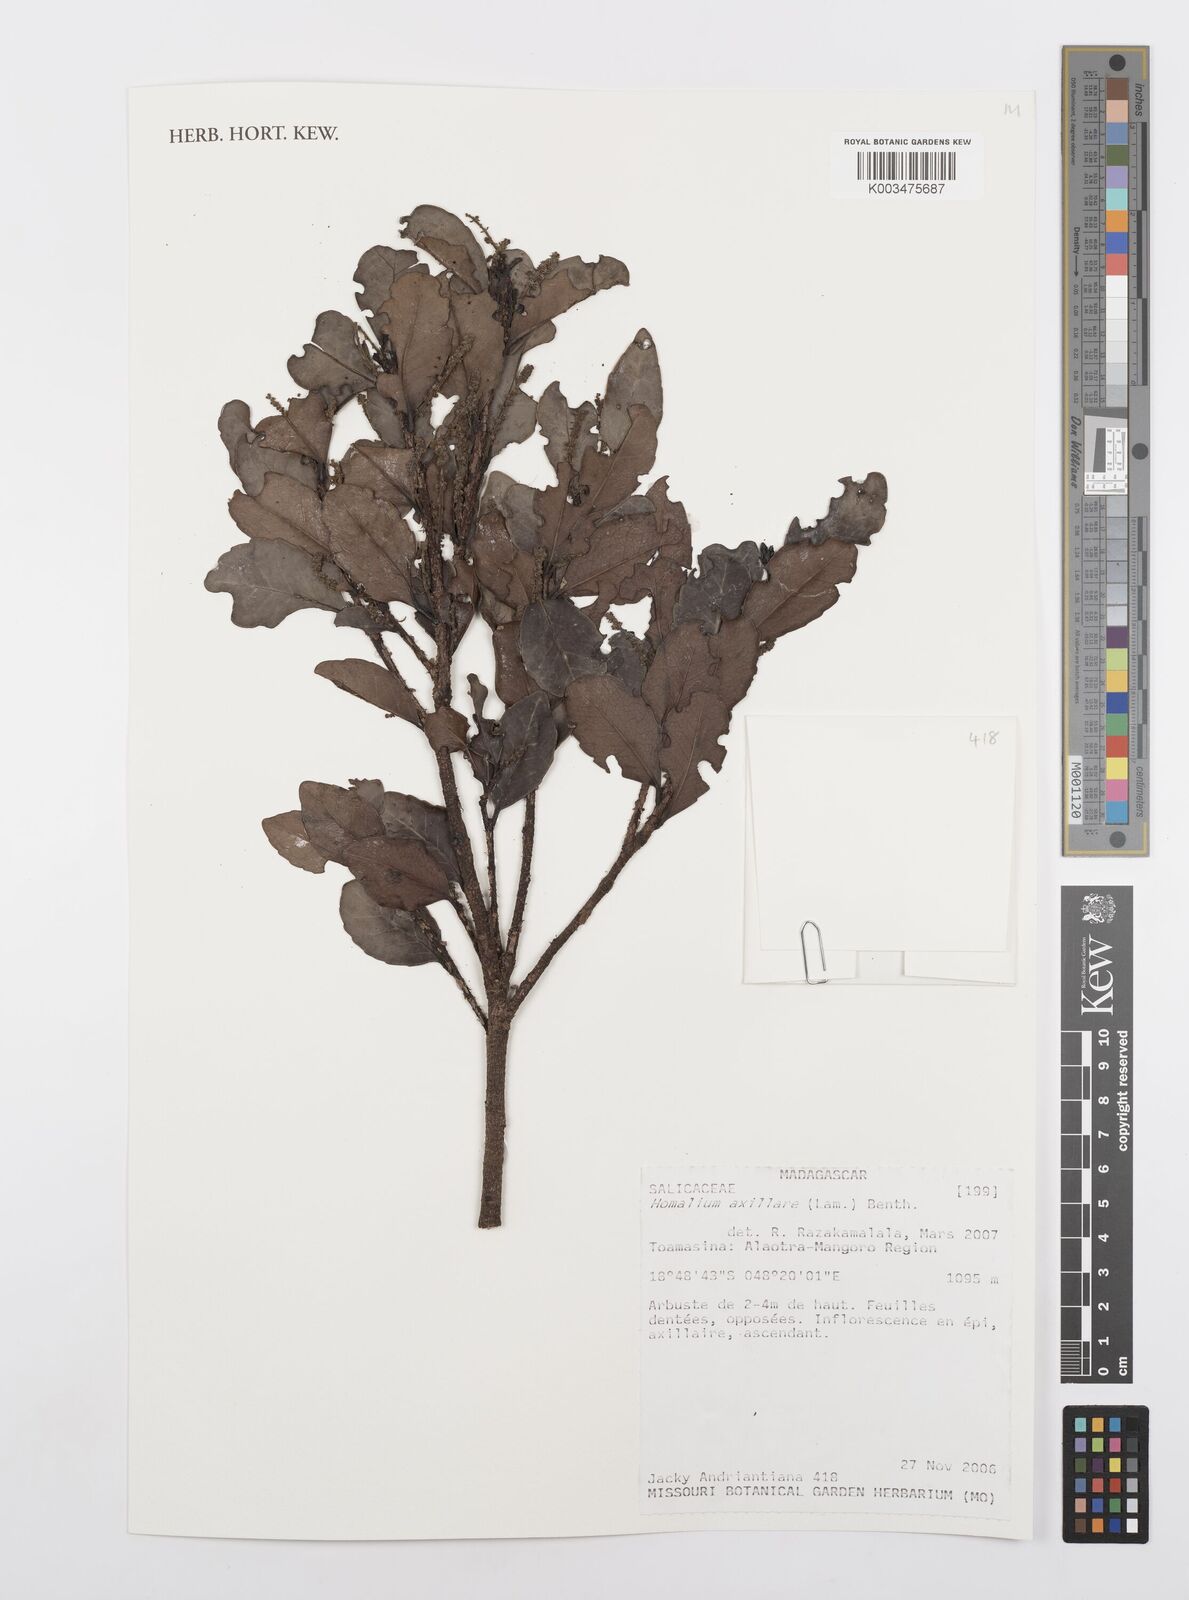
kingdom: Plantae
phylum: Tracheophyta
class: Magnoliopsida
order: Malpighiales
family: Salicaceae
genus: Homalium
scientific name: Homalium axillare
